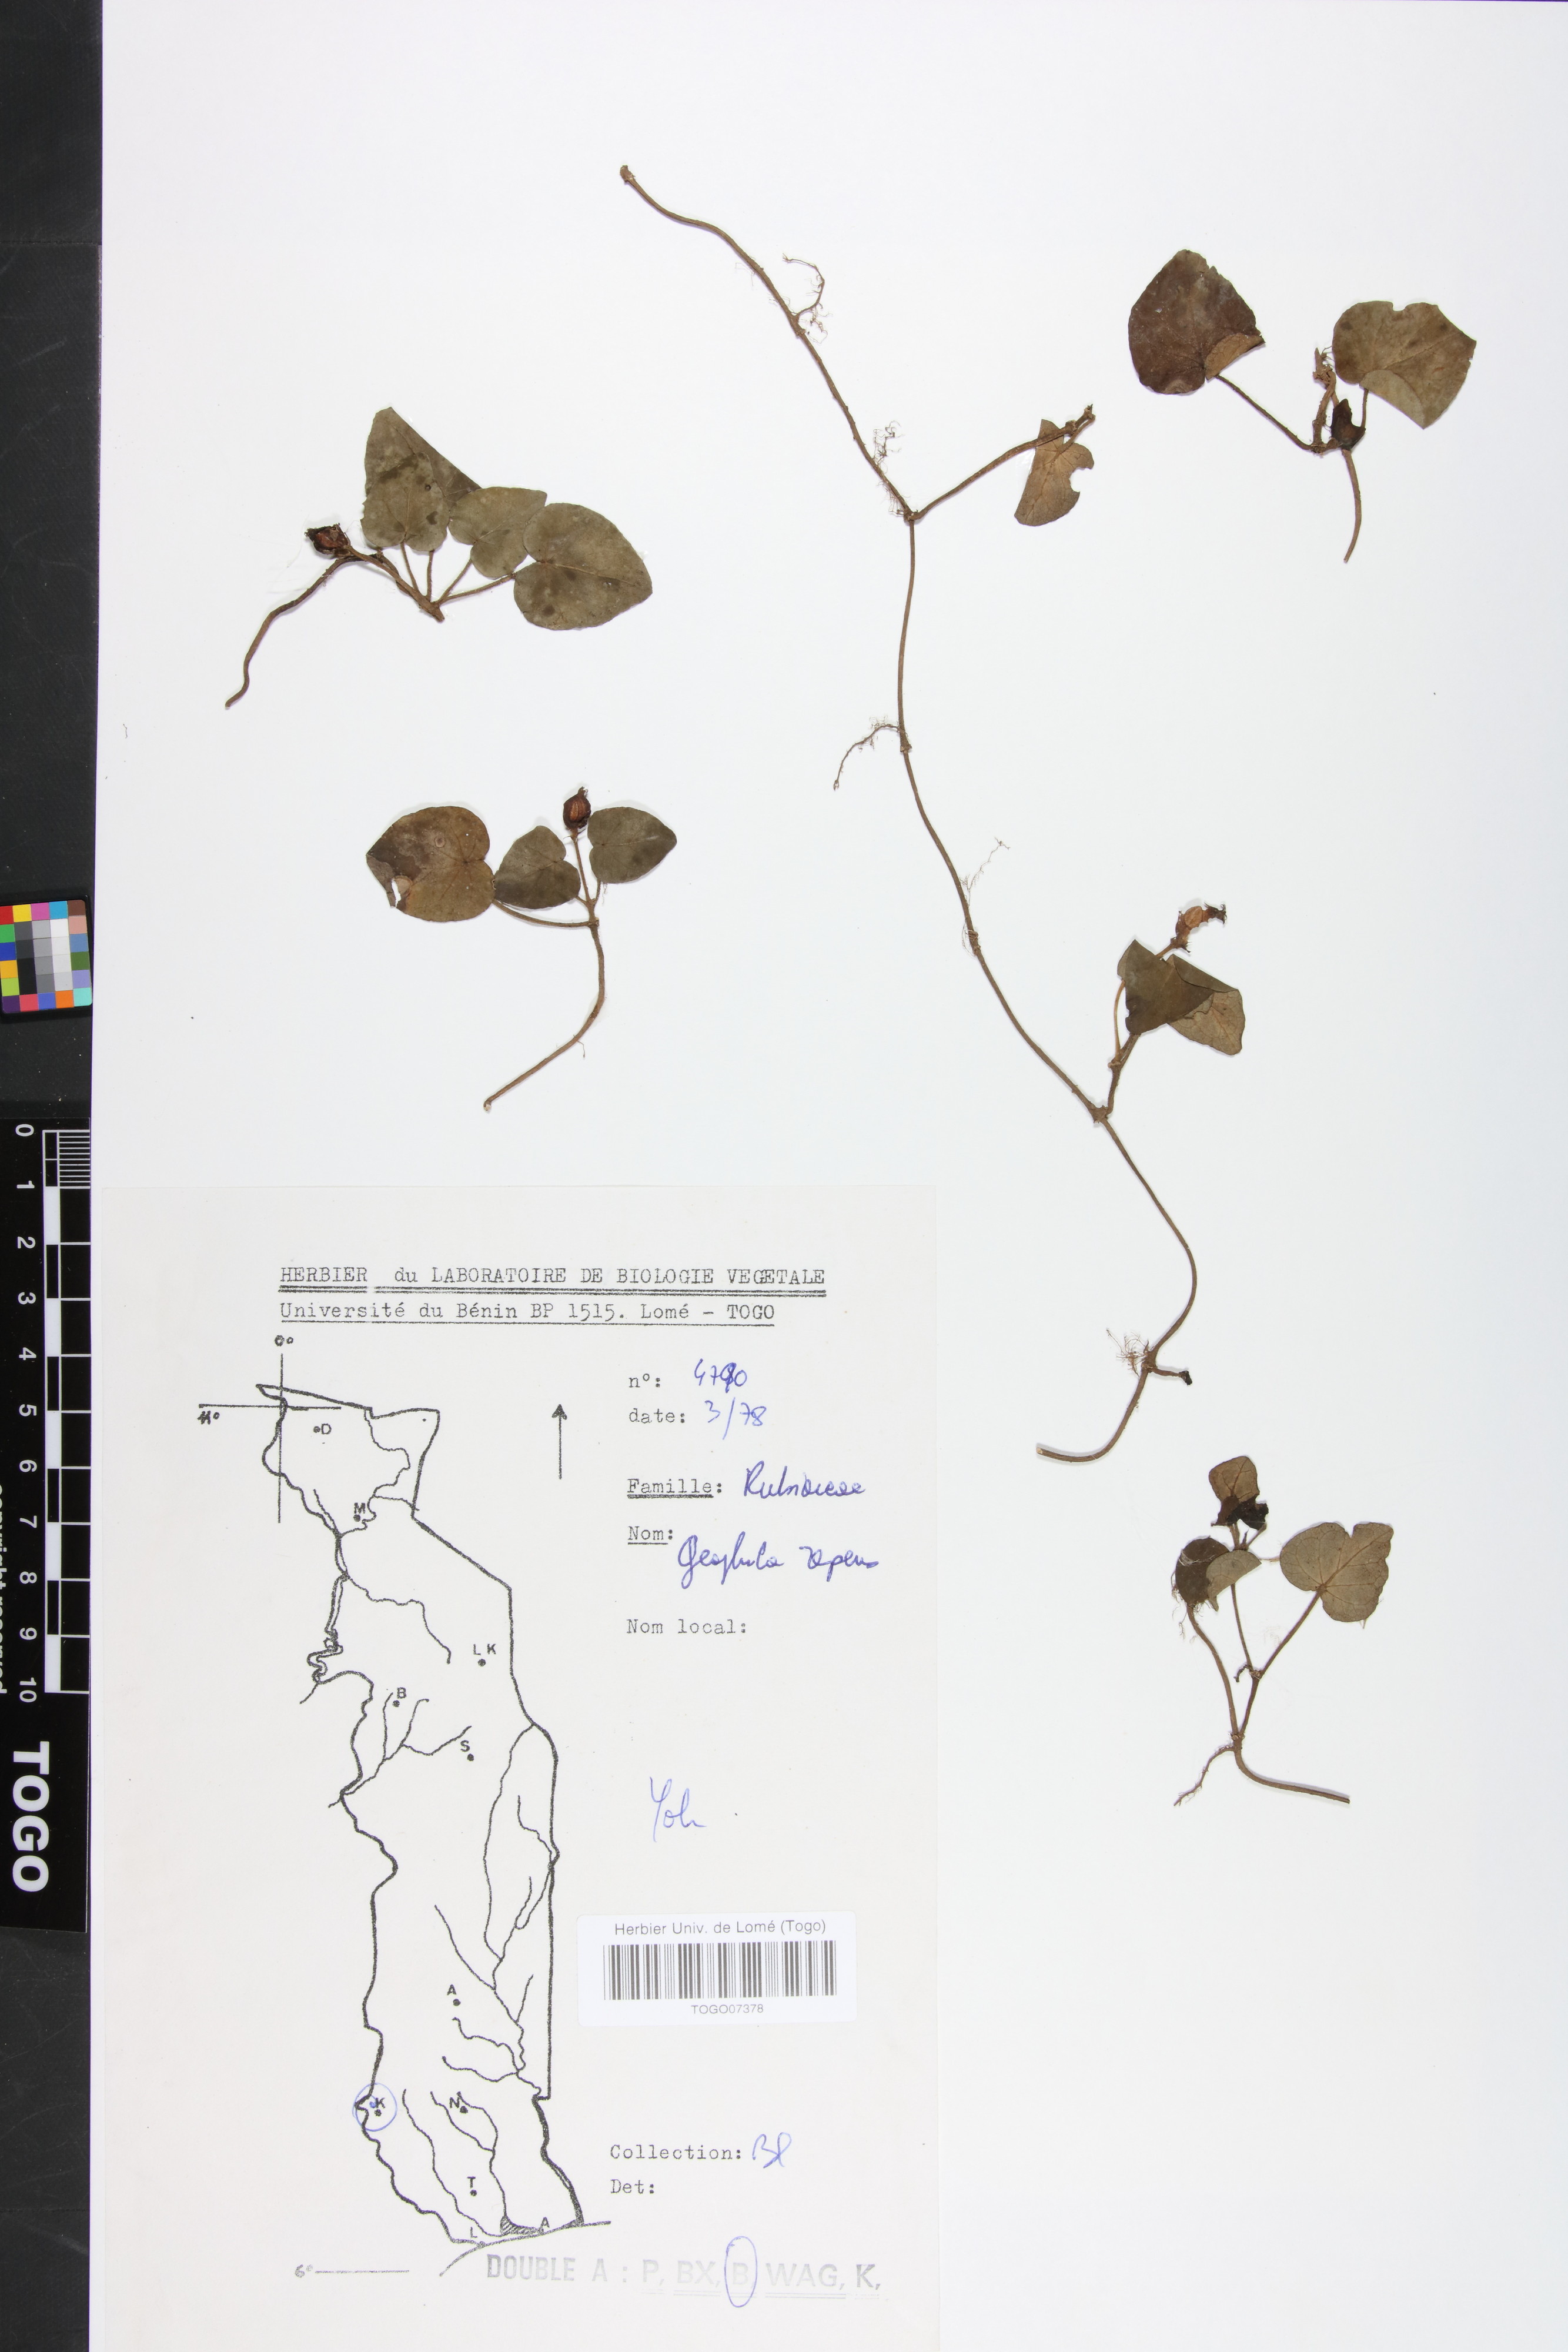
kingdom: Plantae
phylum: Tracheophyta
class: Magnoliopsida
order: Gentianales
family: Rubiaceae
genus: Geophila
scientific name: Geophila repens
